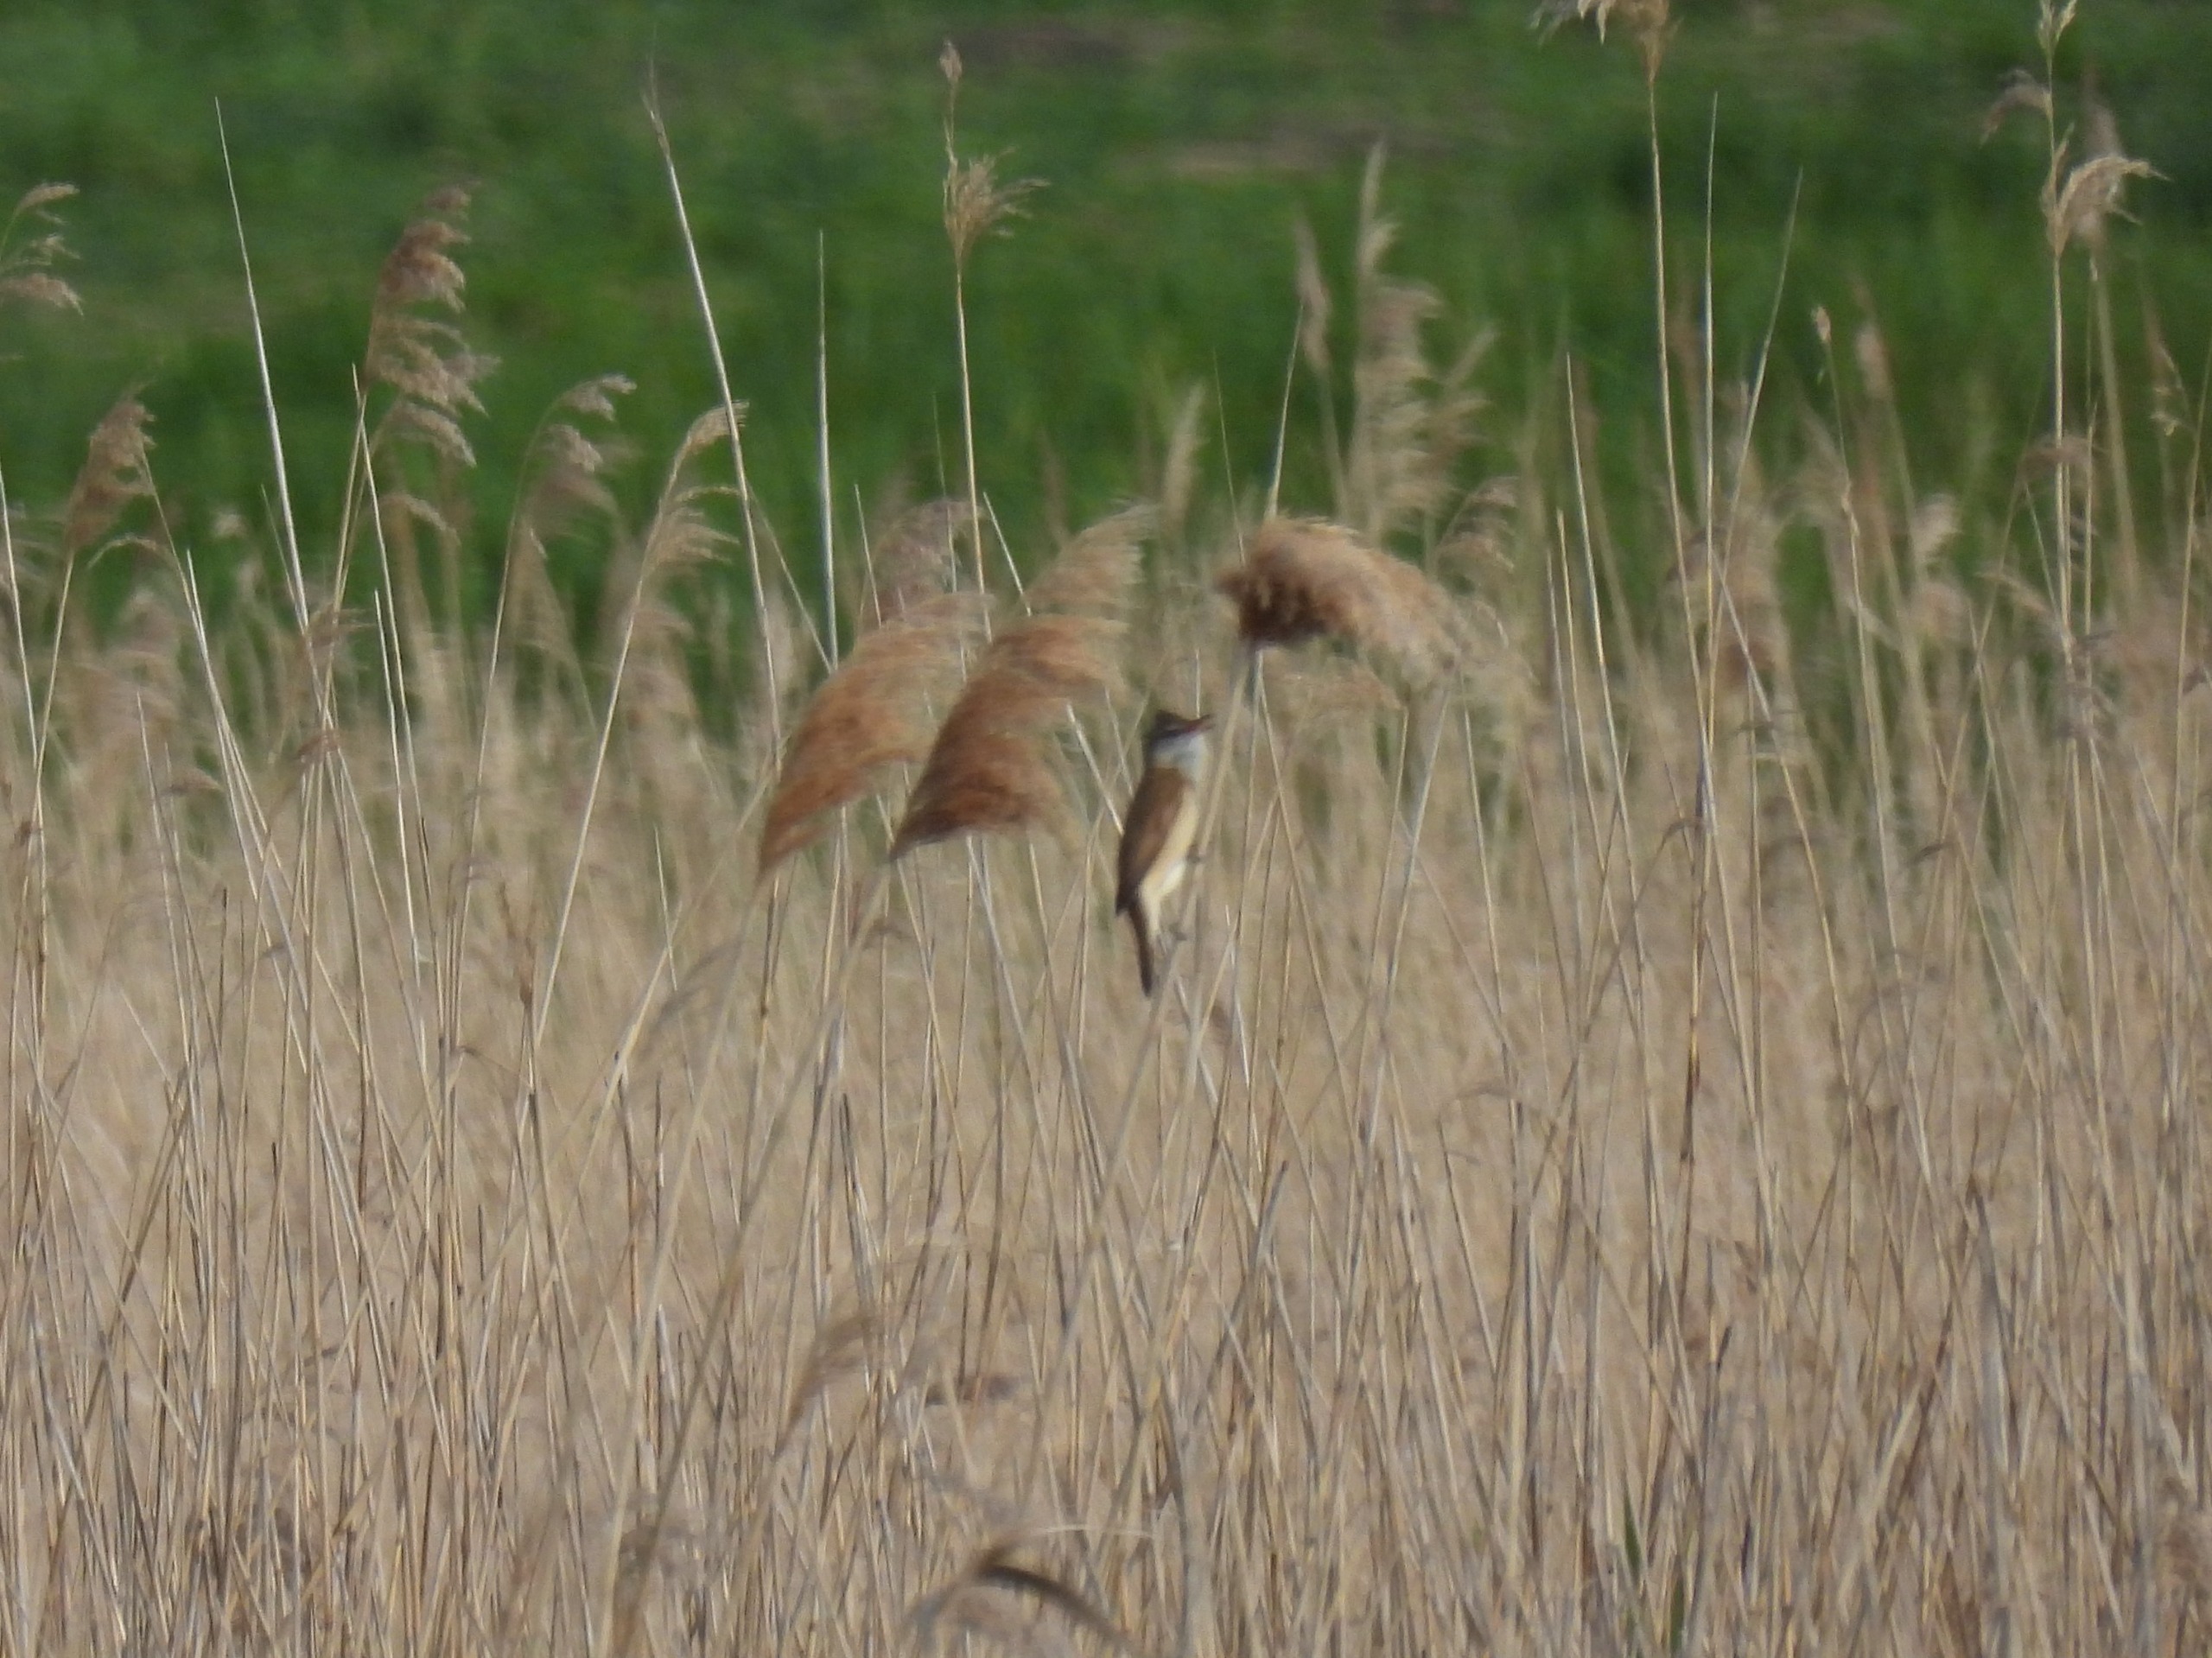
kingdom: Animalia
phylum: Chordata
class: Aves
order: Passeriformes
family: Acrocephalidae
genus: Acrocephalus
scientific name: Acrocephalus arundinaceus
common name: Drosselrørsanger
